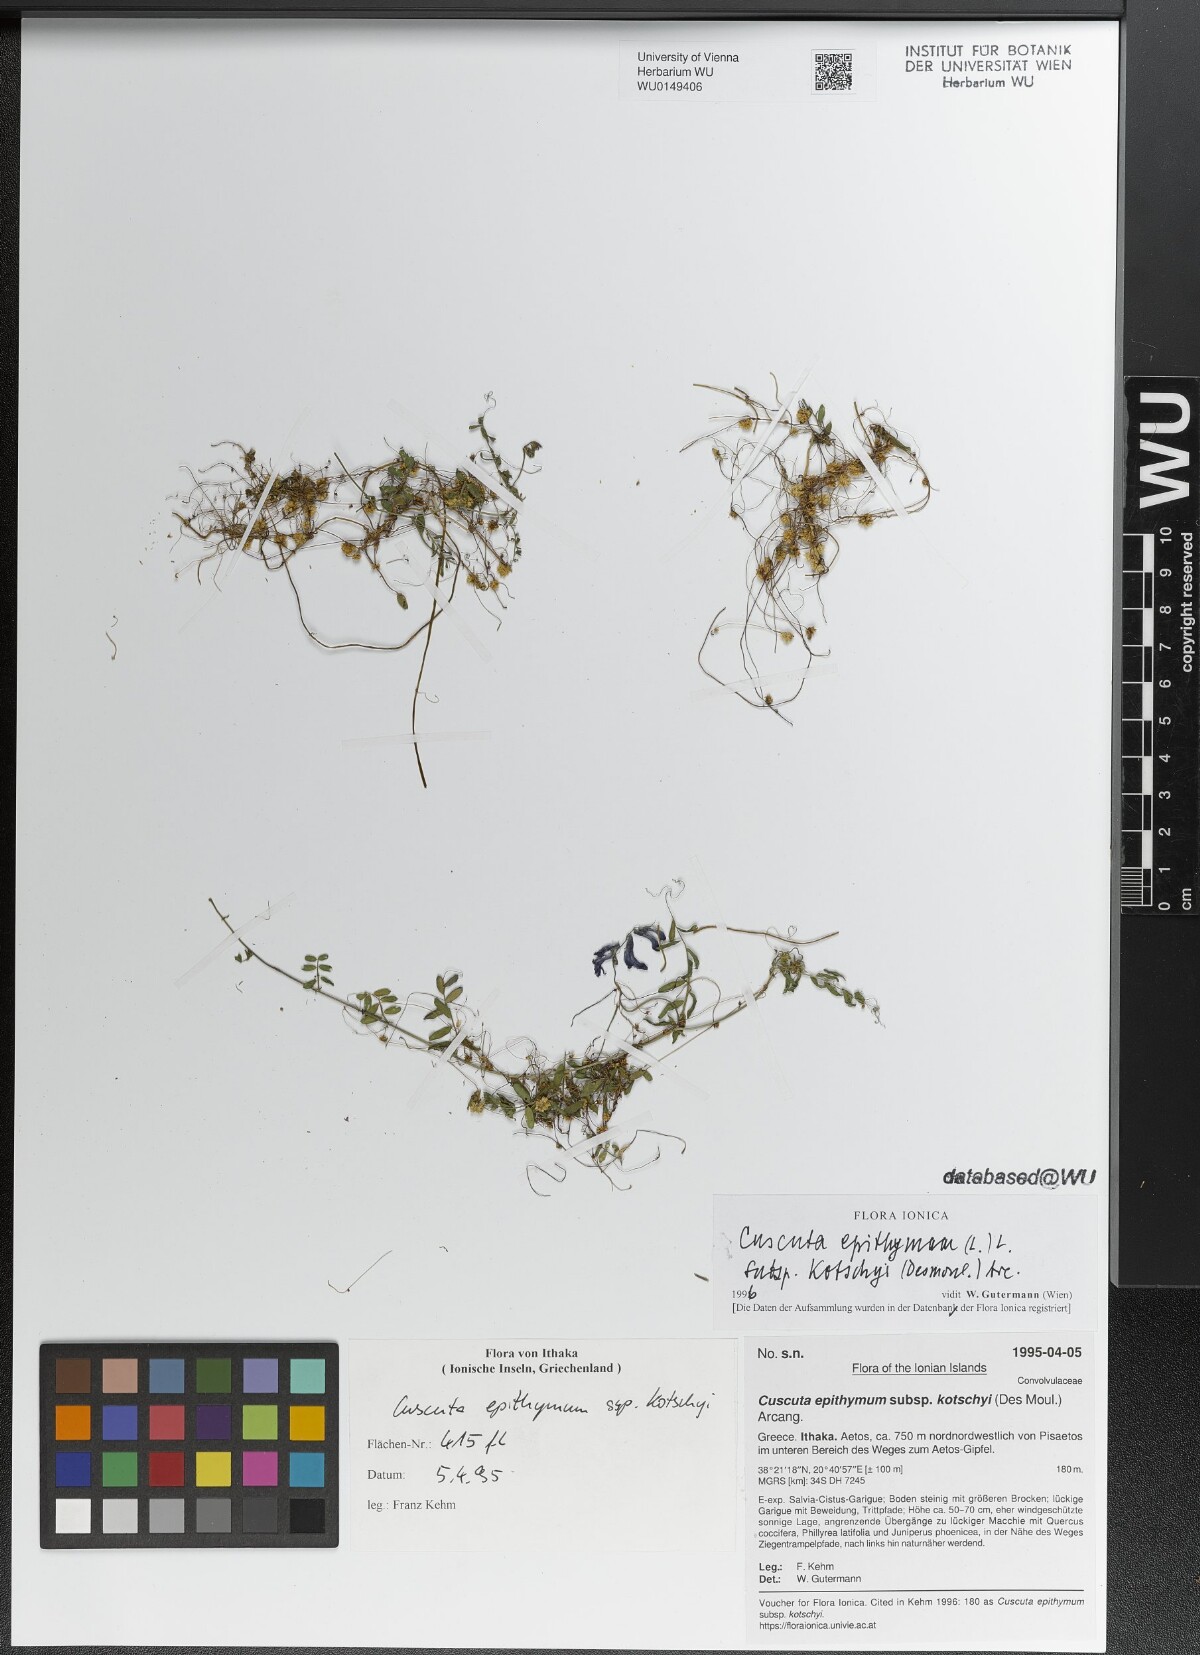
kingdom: Plantae
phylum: Tracheophyta
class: Magnoliopsida
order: Solanales
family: Convolvulaceae
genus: Cuscuta
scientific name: Cuscuta epithymum
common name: Clover dodder
